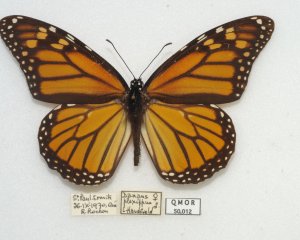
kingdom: Animalia
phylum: Arthropoda
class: Insecta
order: Lepidoptera
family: Nymphalidae
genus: Danaus
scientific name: Danaus plexippus
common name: Monarch
